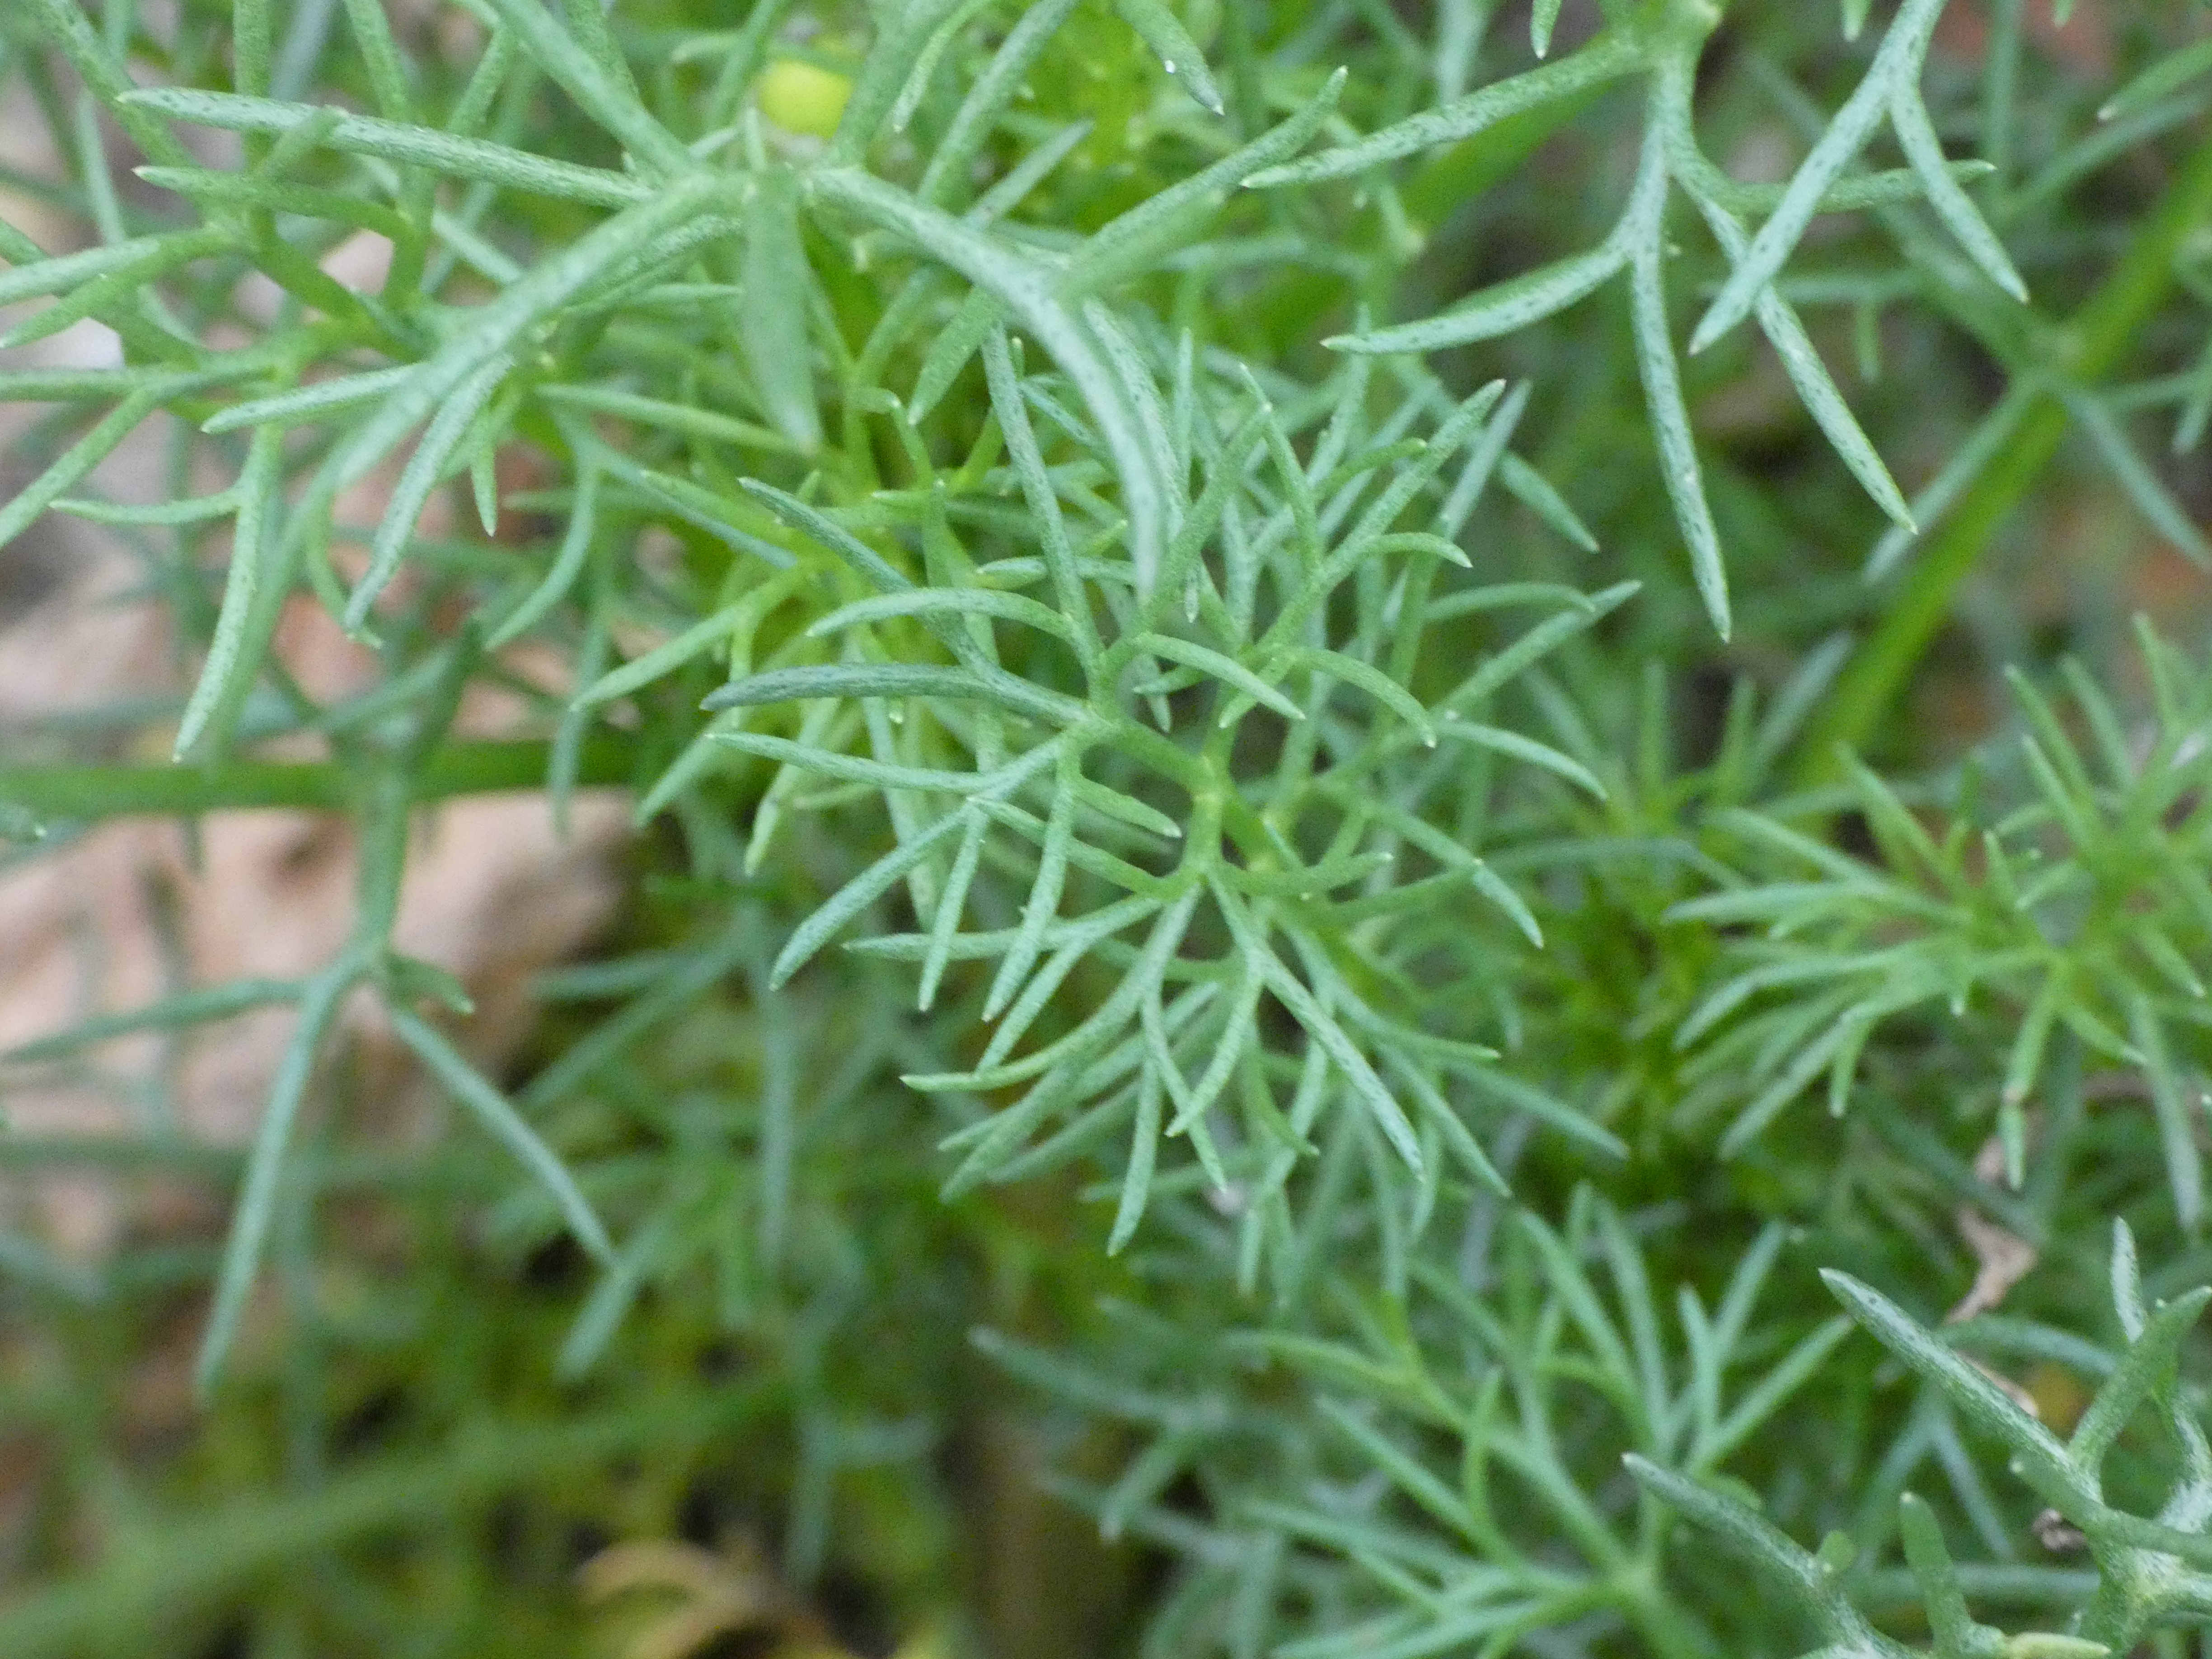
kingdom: Plantae
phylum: Tracheophyta
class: Magnoliopsida
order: Asterales
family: Asteraceae
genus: Tripleurospermum
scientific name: Tripleurospermum maritimum
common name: Strand-kamille
